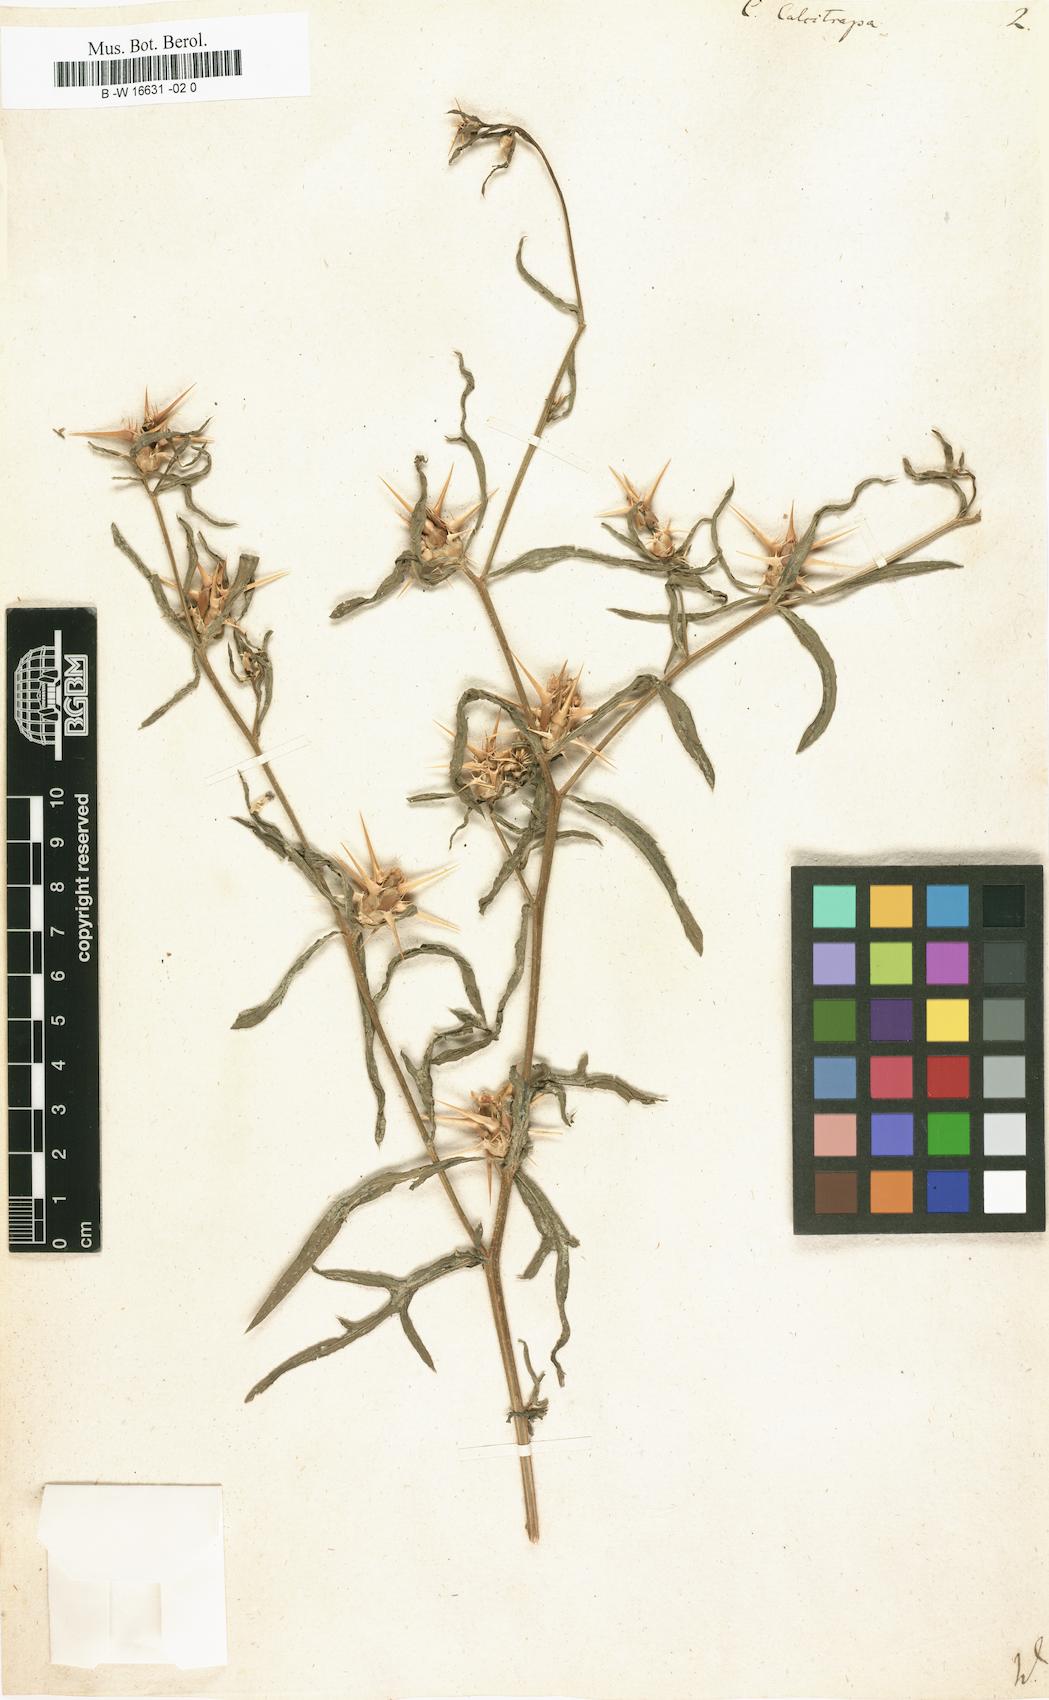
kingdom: Plantae
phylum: Tracheophyta
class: Magnoliopsida
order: Asterales
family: Asteraceae
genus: Centaurea
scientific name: Centaurea calcitrapa
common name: Red star-thistle
